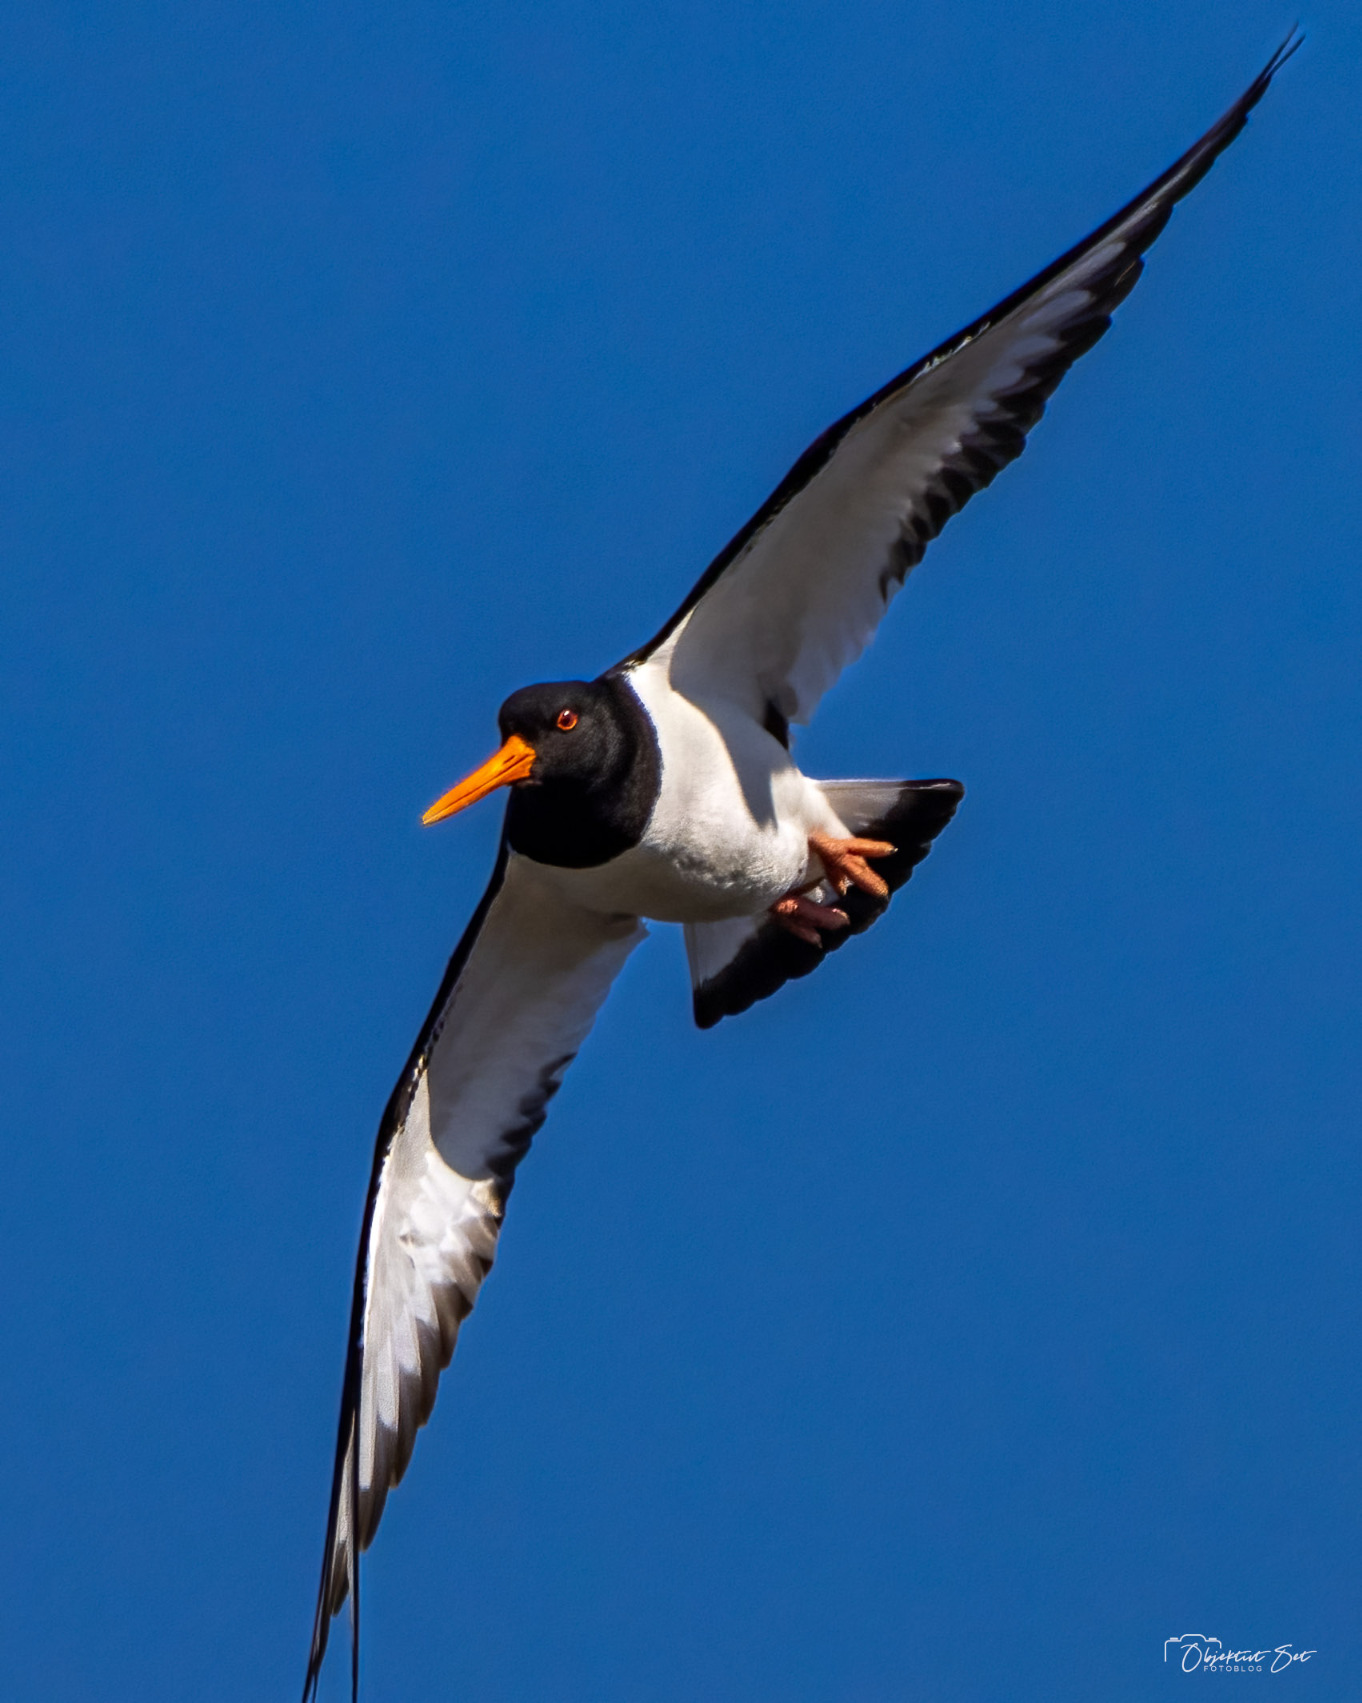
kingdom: Animalia
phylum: Chordata
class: Aves
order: Charadriiformes
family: Haematopodidae
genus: Haematopus
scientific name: Haematopus ostralegus
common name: Strandskade
